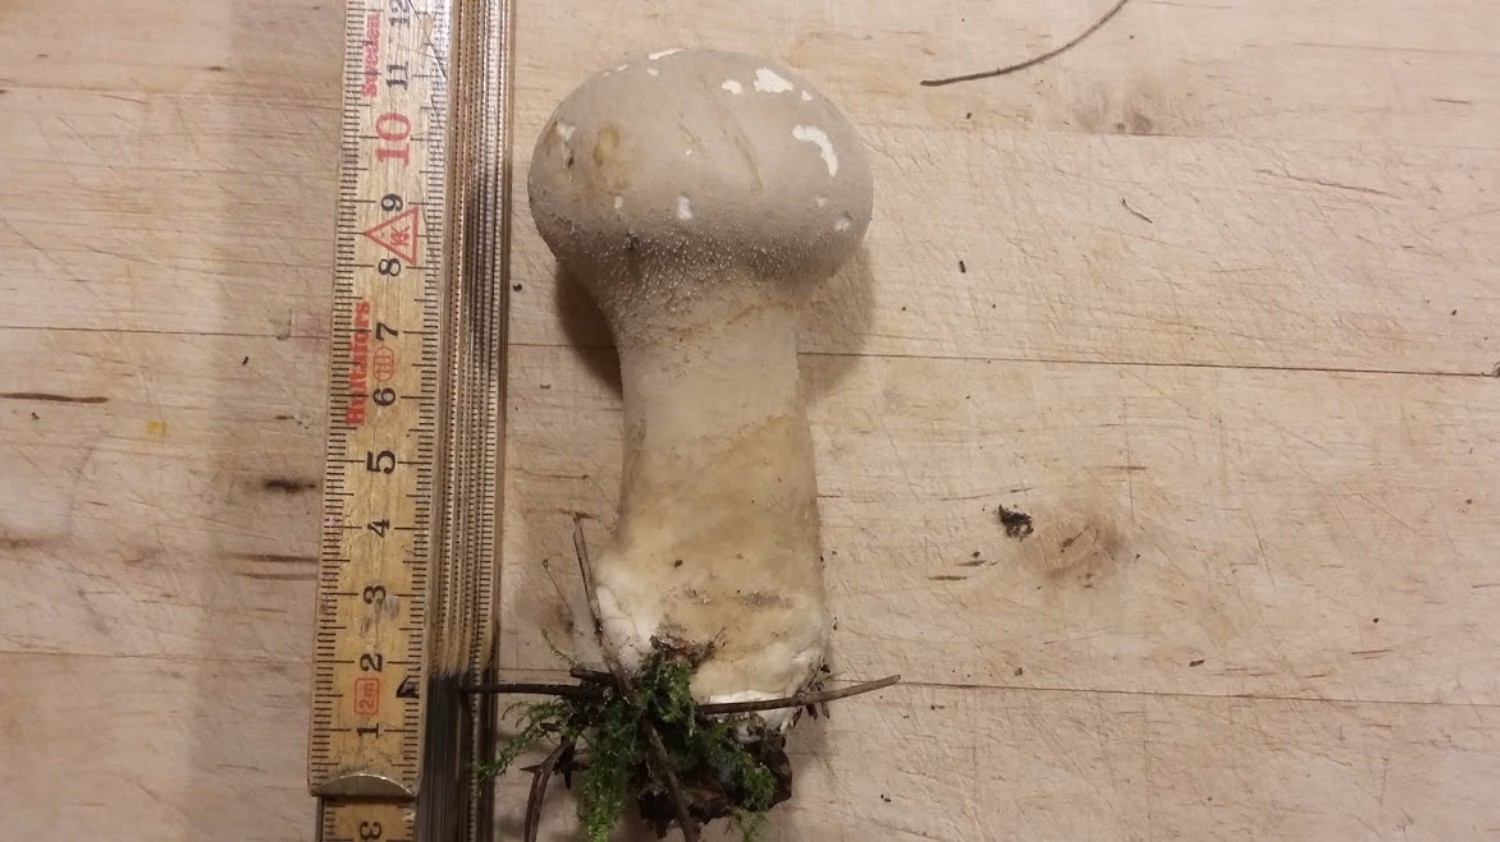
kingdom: Fungi
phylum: Basidiomycota
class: Agaricomycetes
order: Agaricales
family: Lycoperdaceae
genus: Lycoperdon
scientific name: Lycoperdon excipuliforme
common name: højstokket støvbold
